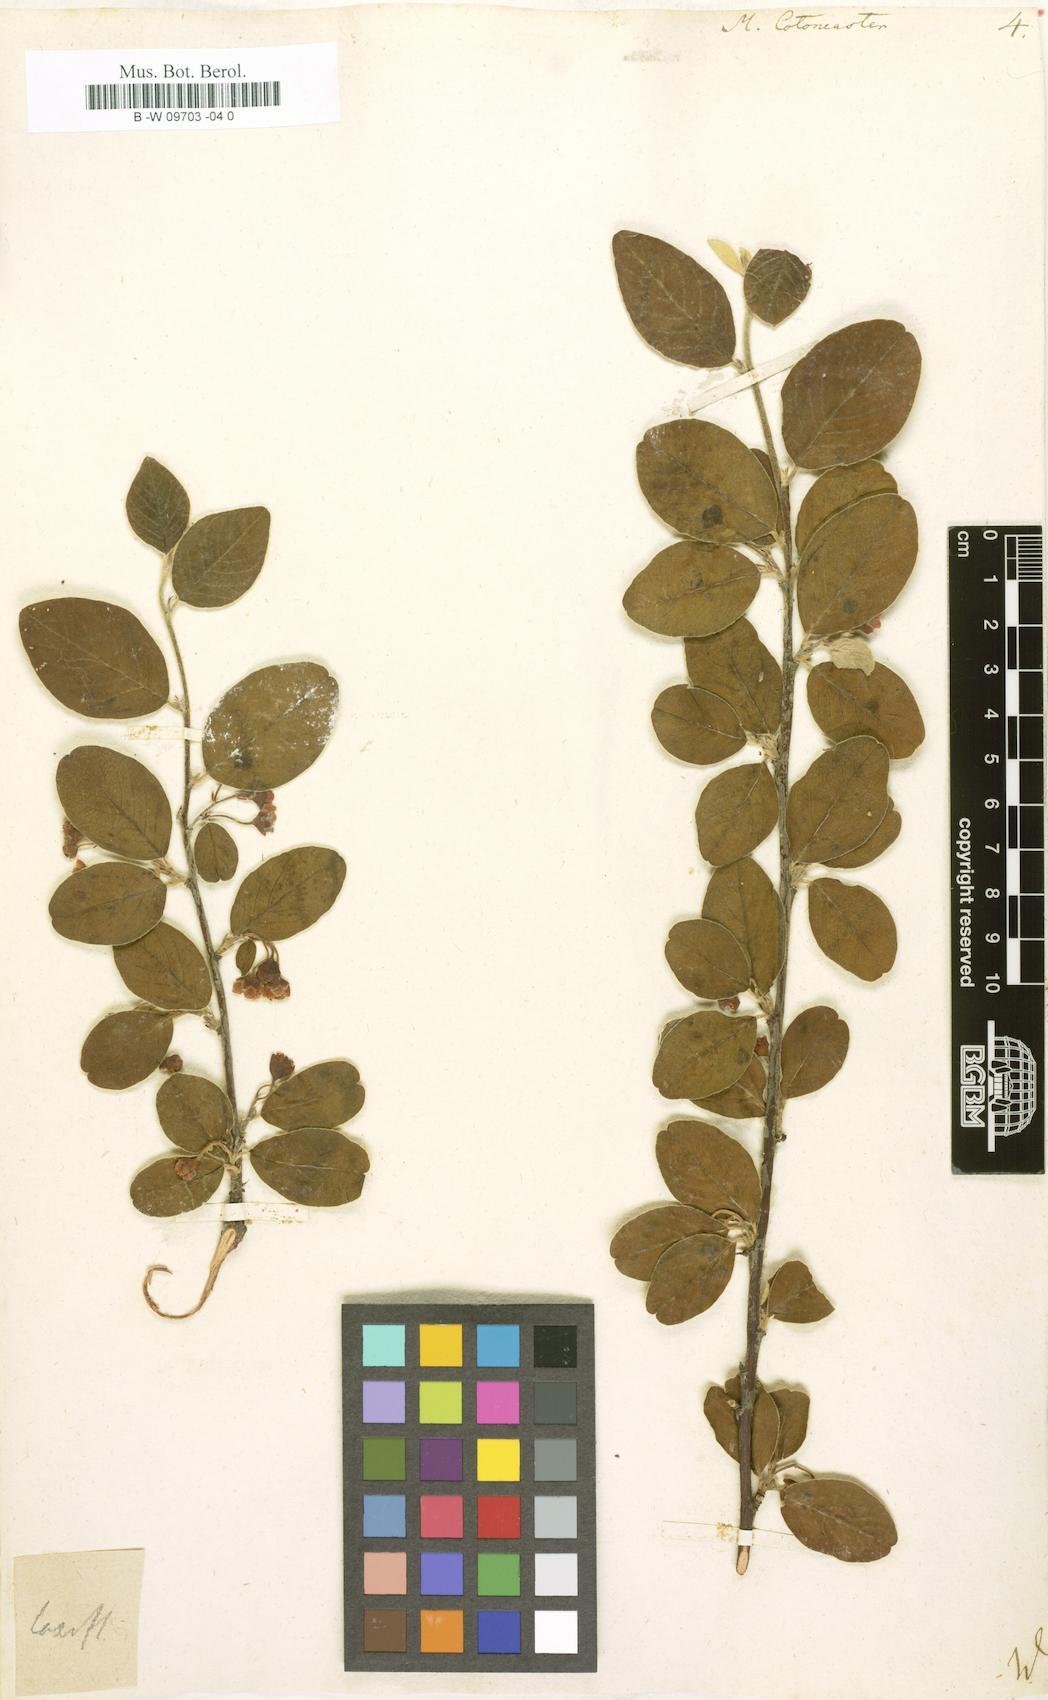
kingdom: Plantae
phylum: Tracheophyta
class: Magnoliopsida
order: Rosales
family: Rosaceae
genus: Cotoneaster
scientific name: Cotoneaster integerrimus
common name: Wild cotoneaster
